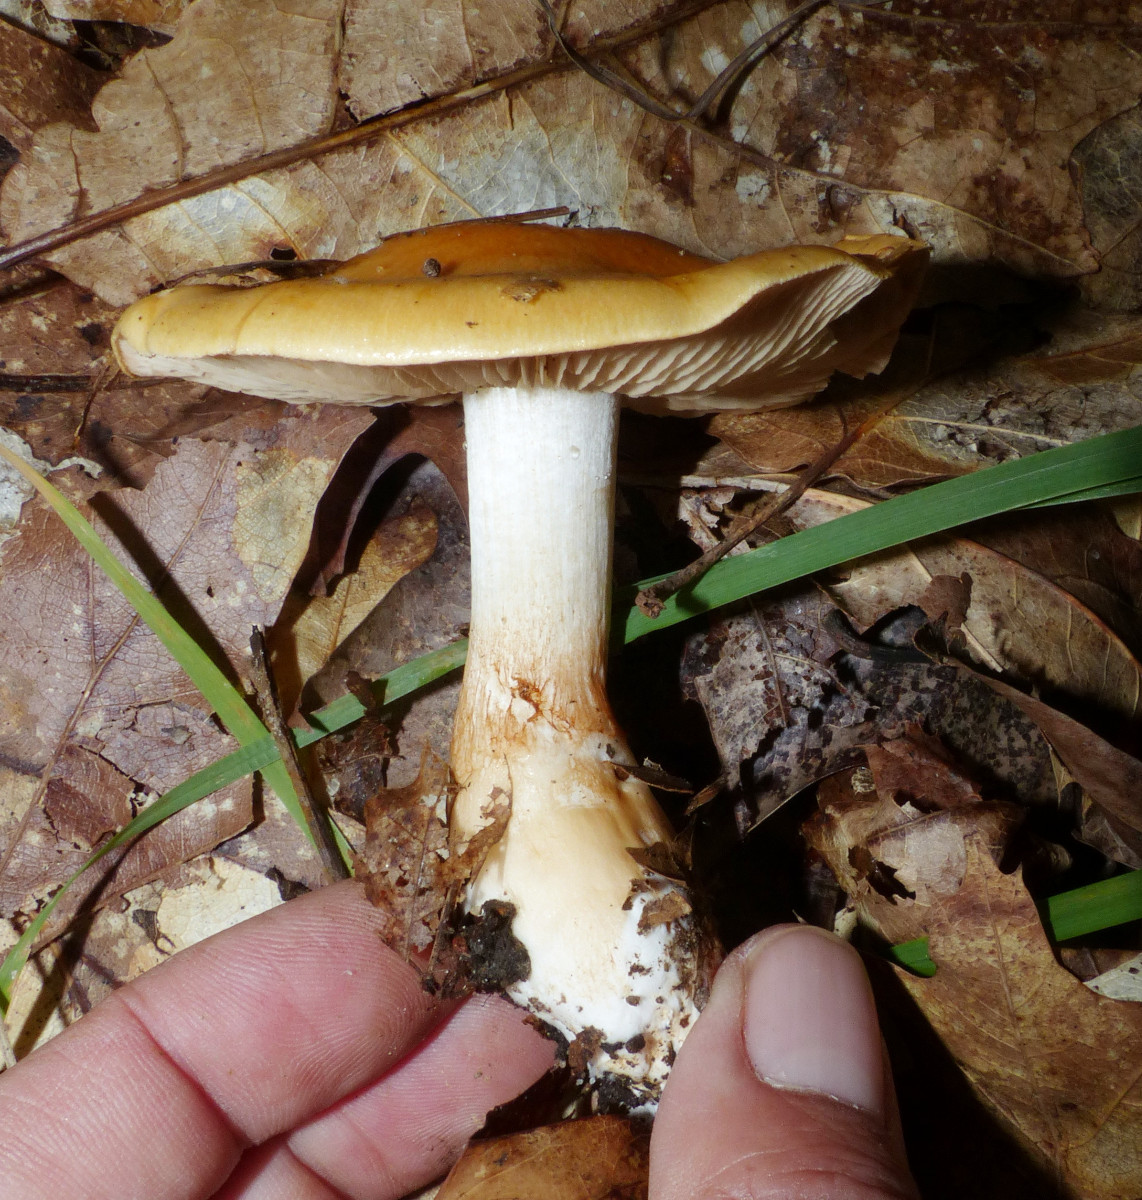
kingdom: Fungi
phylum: Basidiomycota
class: Agaricomycetes
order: Agaricales
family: Cortinariaceae
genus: Cortinarius
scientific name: Cortinarius
